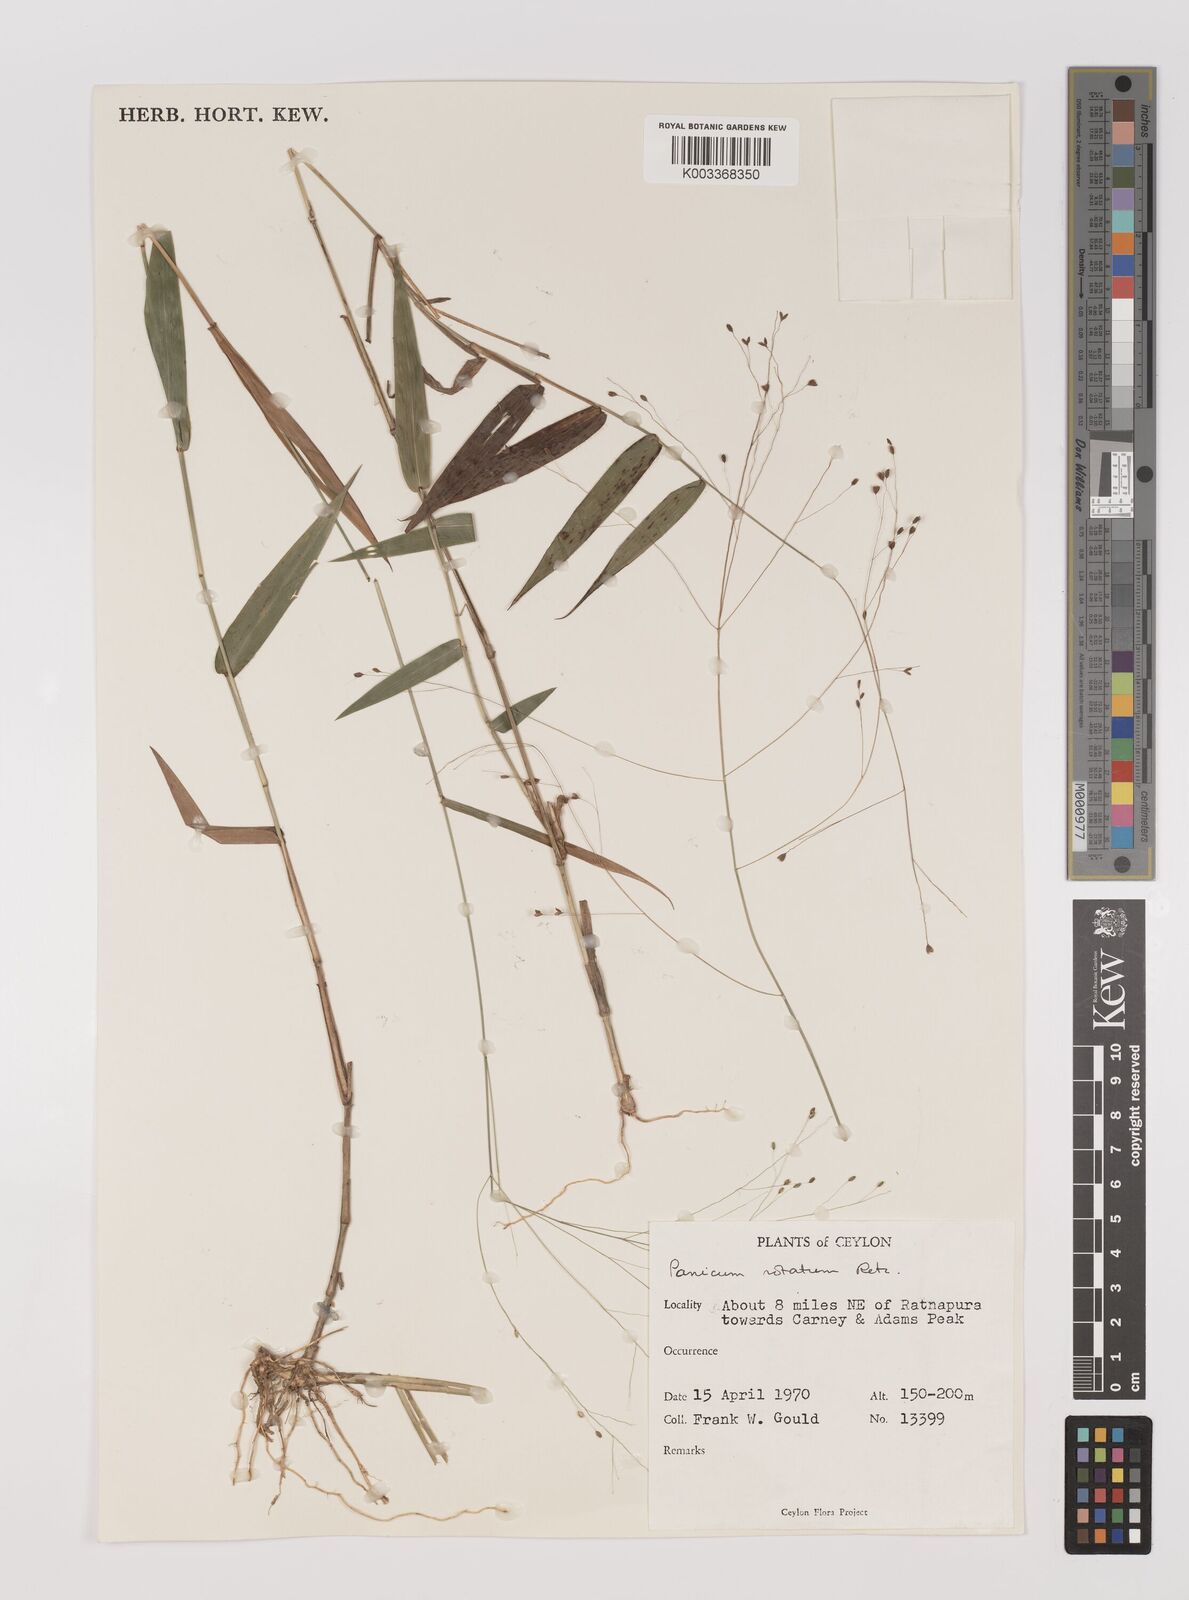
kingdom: Plantae
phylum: Tracheophyta
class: Liliopsida
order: Poales
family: Poaceae
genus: Panicum
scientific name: Panicum notatum
